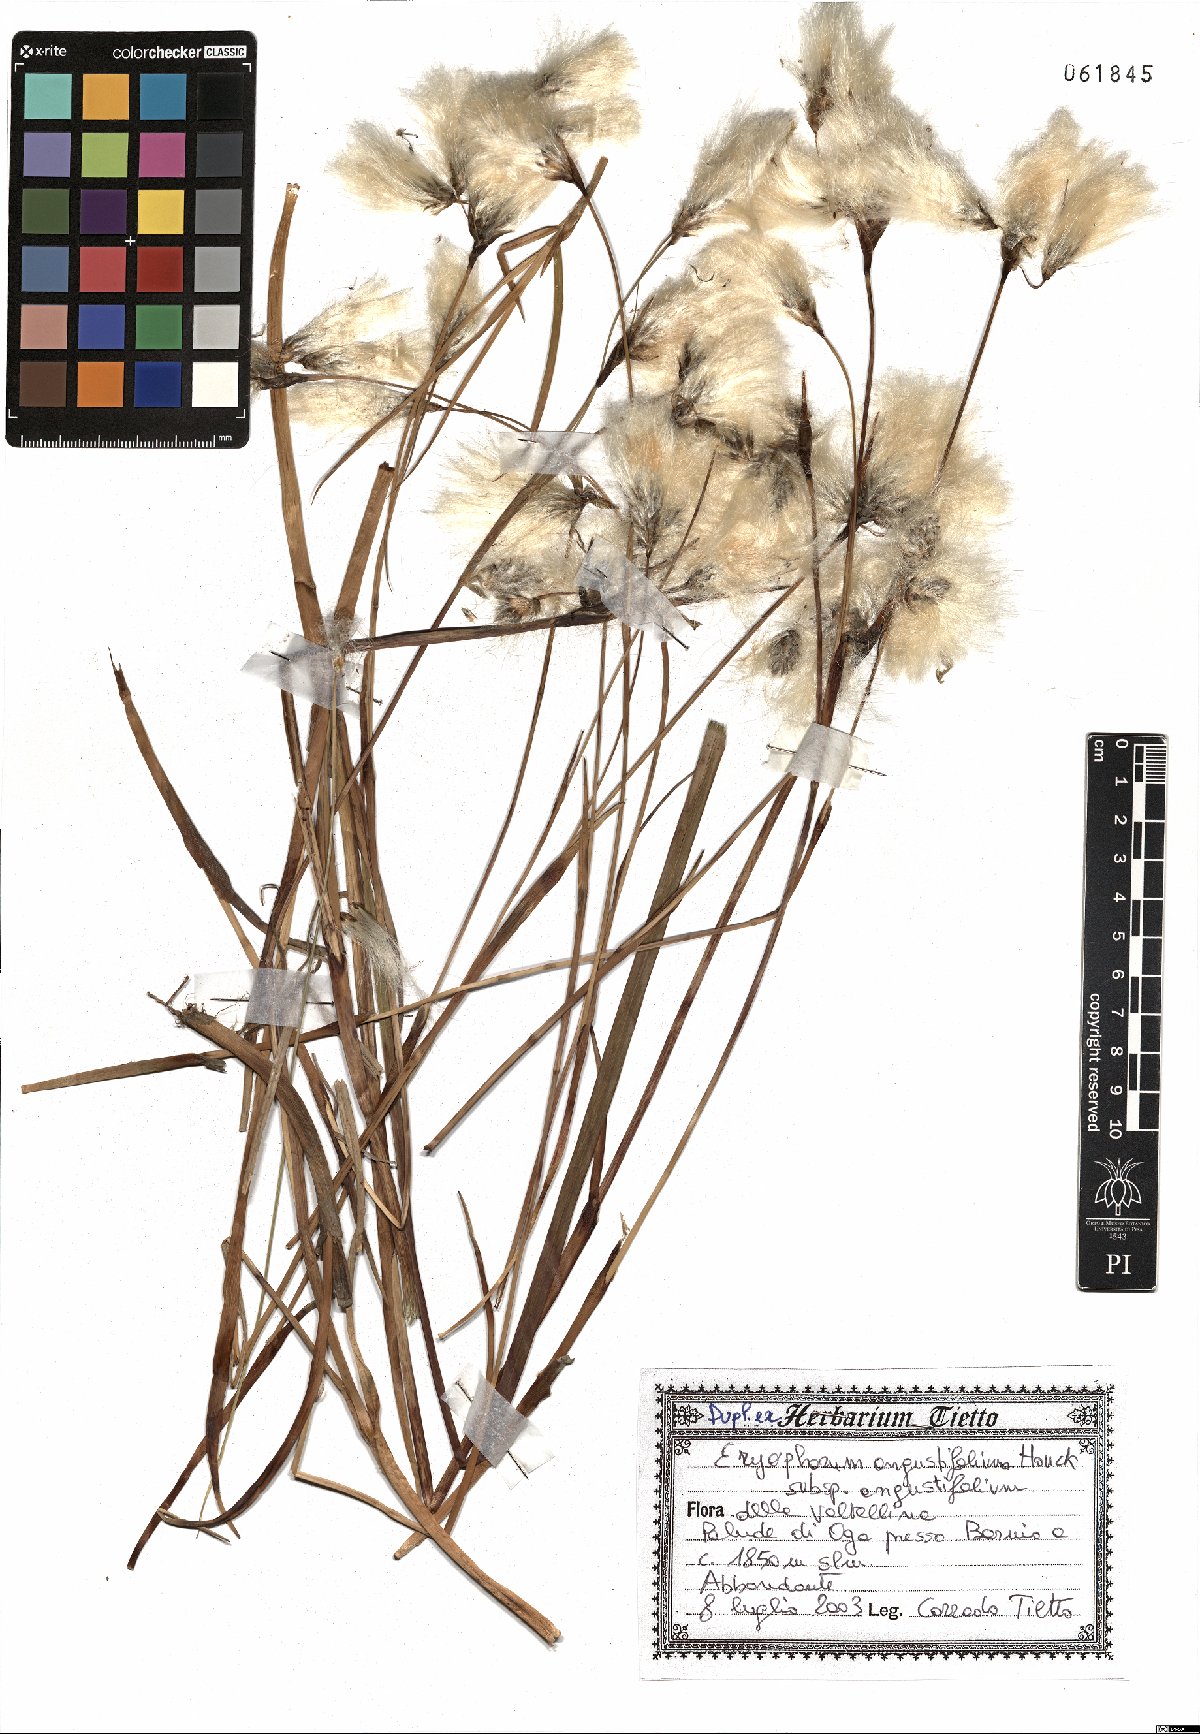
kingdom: Plantae
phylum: Tracheophyta
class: Liliopsida
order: Poales
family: Cyperaceae
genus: Eriophorum
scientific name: Eriophorum angustifolium
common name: Common cottongrass
